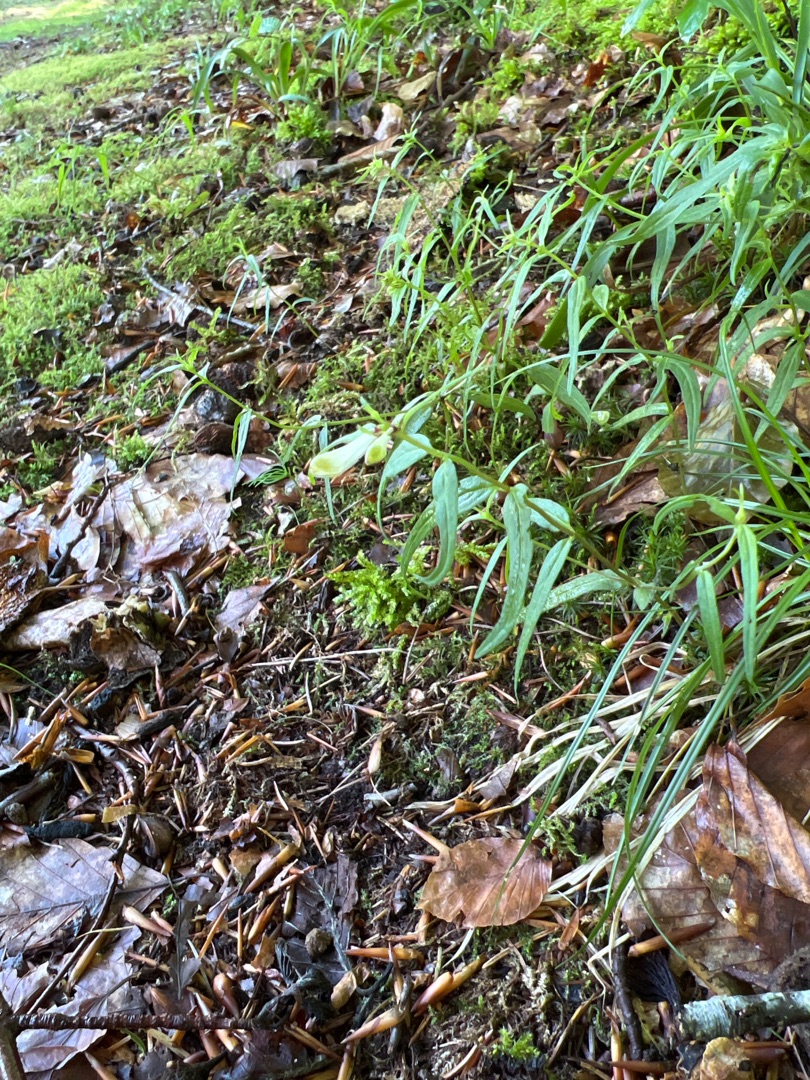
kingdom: Plantae
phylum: Tracheophyta
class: Magnoliopsida
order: Lamiales
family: Orobanchaceae
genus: Melampyrum
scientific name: Melampyrum pratense
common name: Almindelig kohvede
